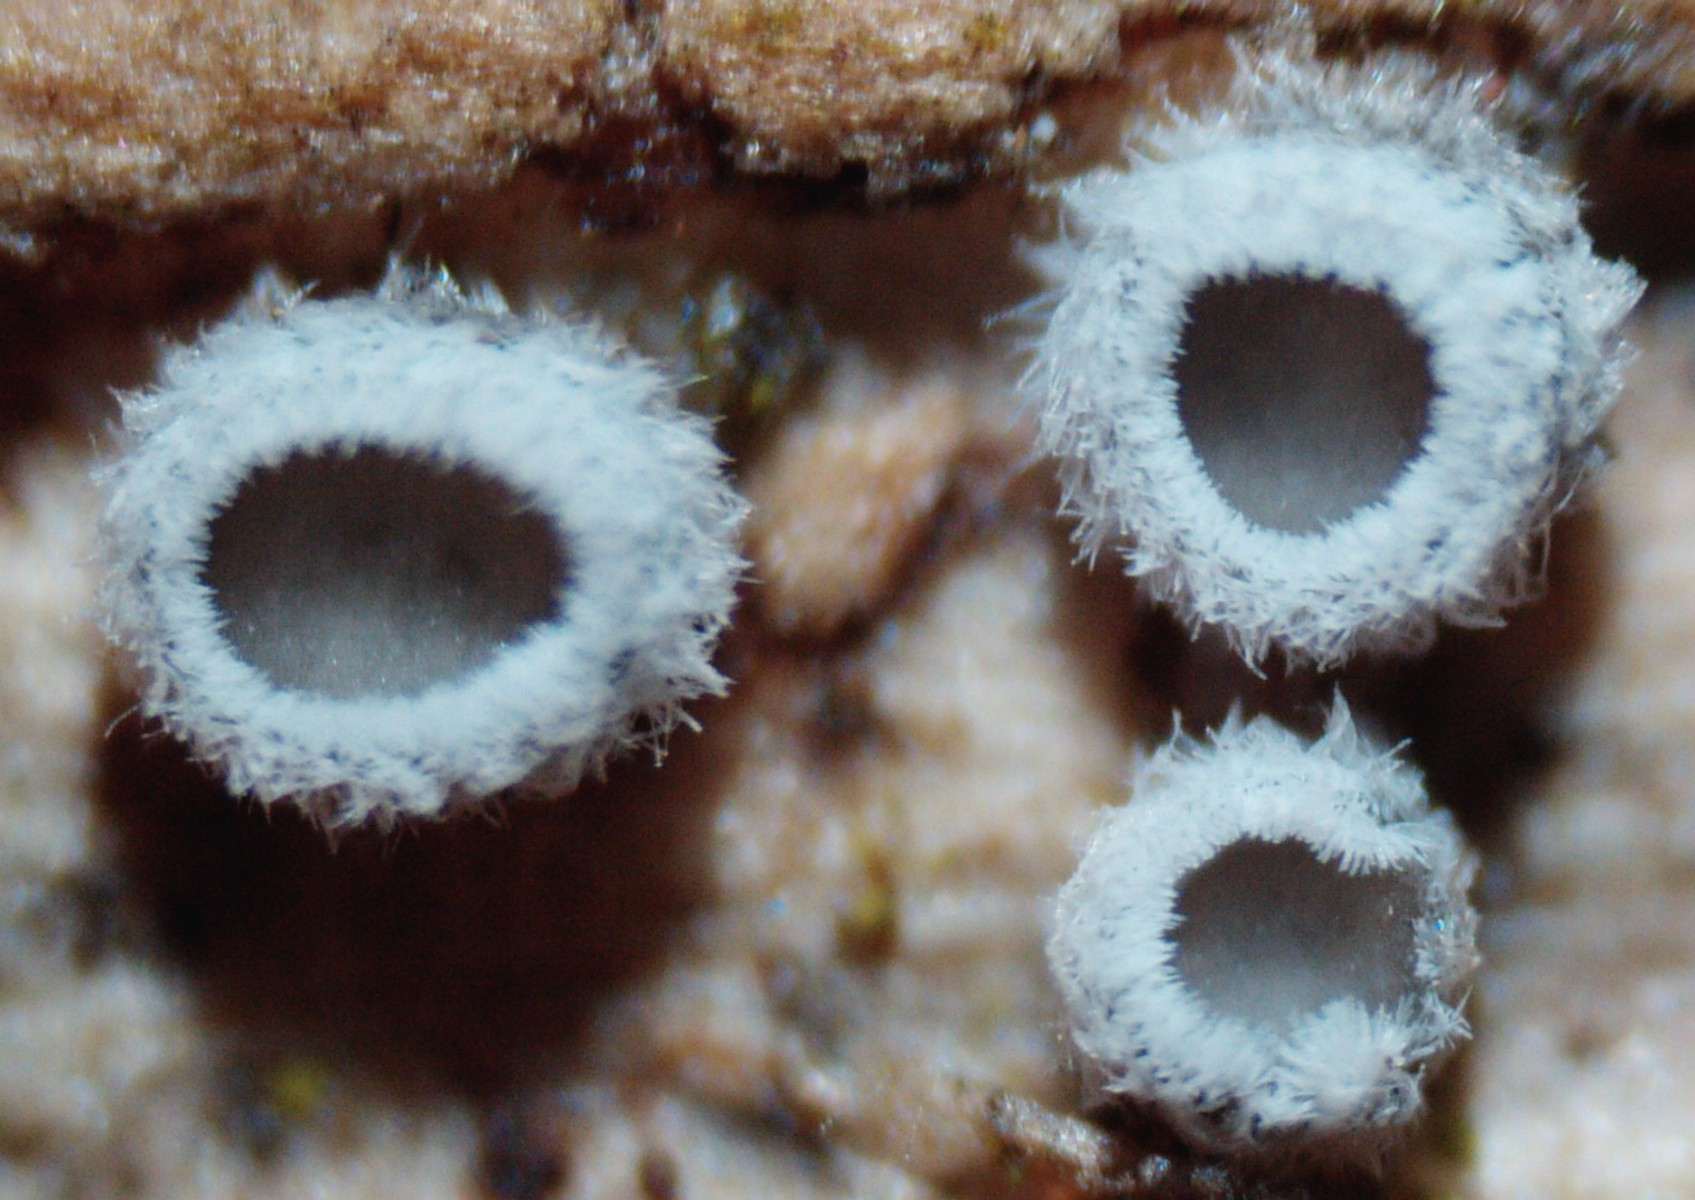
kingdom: Fungi
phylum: Basidiomycota
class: Agaricomycetes
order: Agaricales
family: Niaceae
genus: Lachnella
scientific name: Lachnella alboviolascens
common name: grå frynserede
